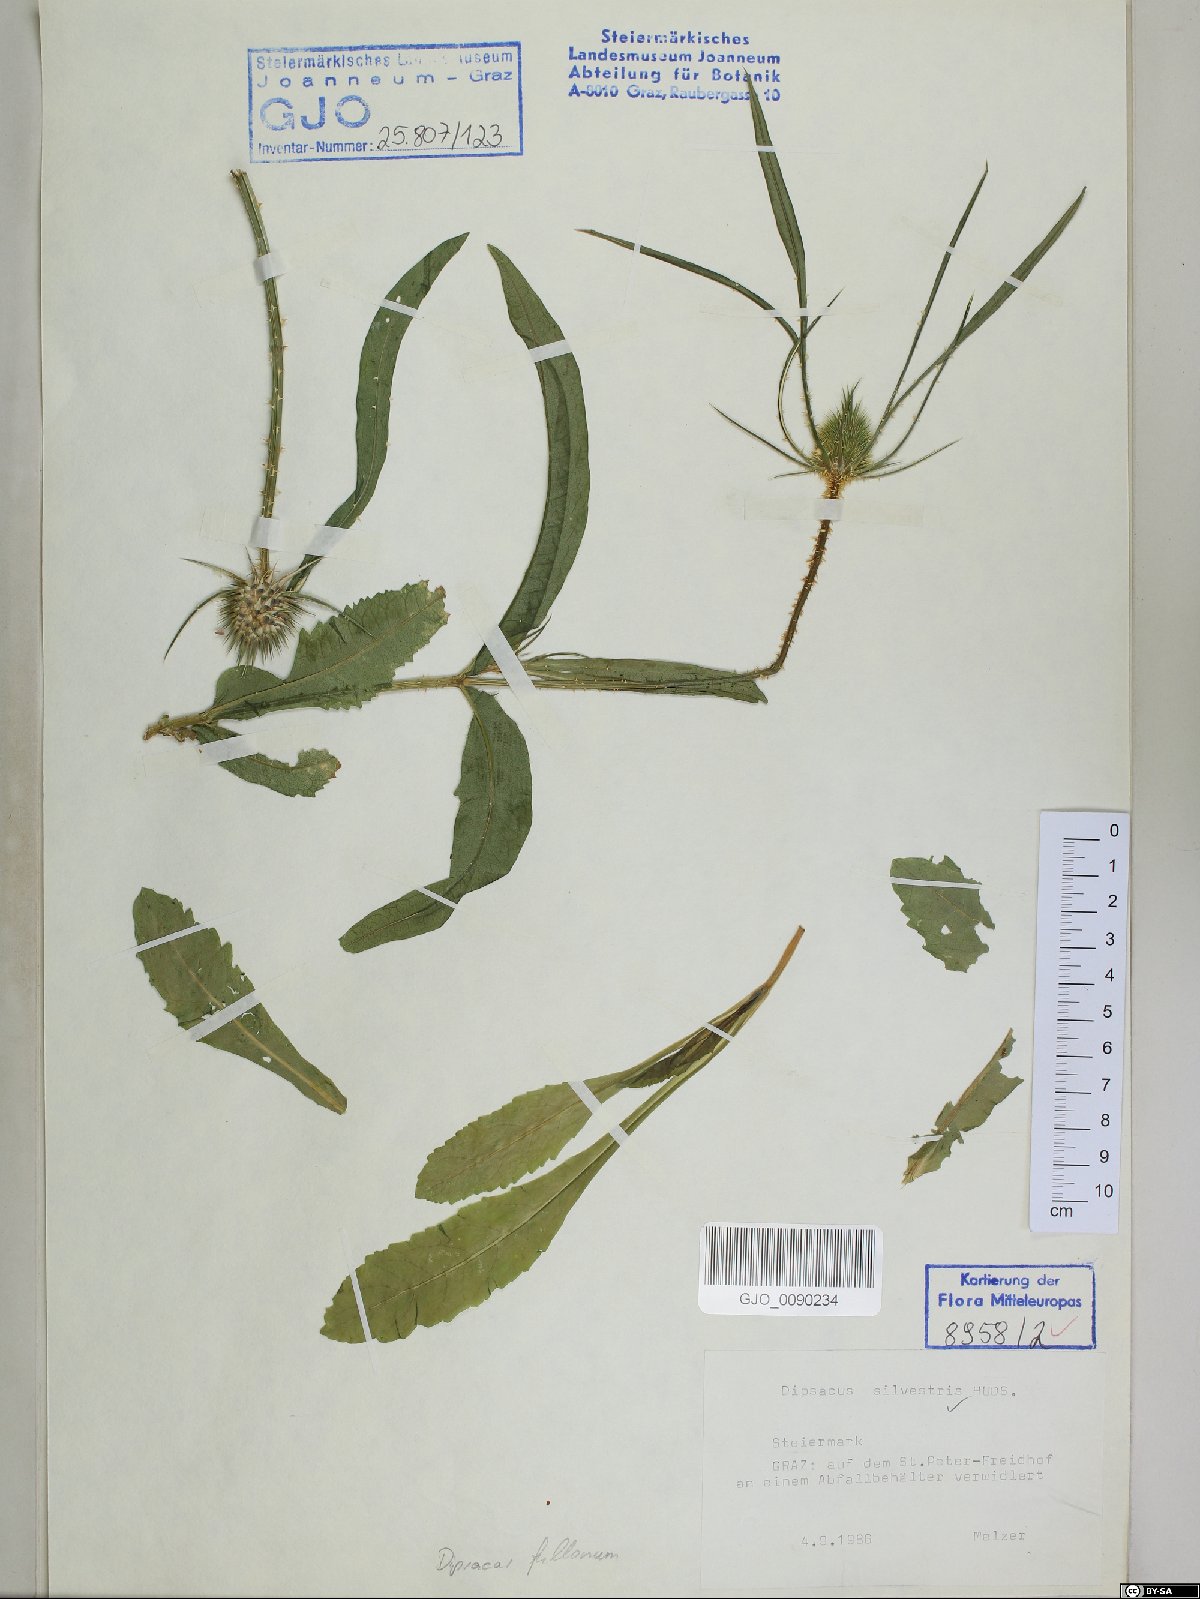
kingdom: Plantae
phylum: Tracheophyta
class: Magnoliopsida
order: Dipsacales
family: Caprifoliaceae
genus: Dipsacus
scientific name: Dipsacus fullonum
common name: Teasel
